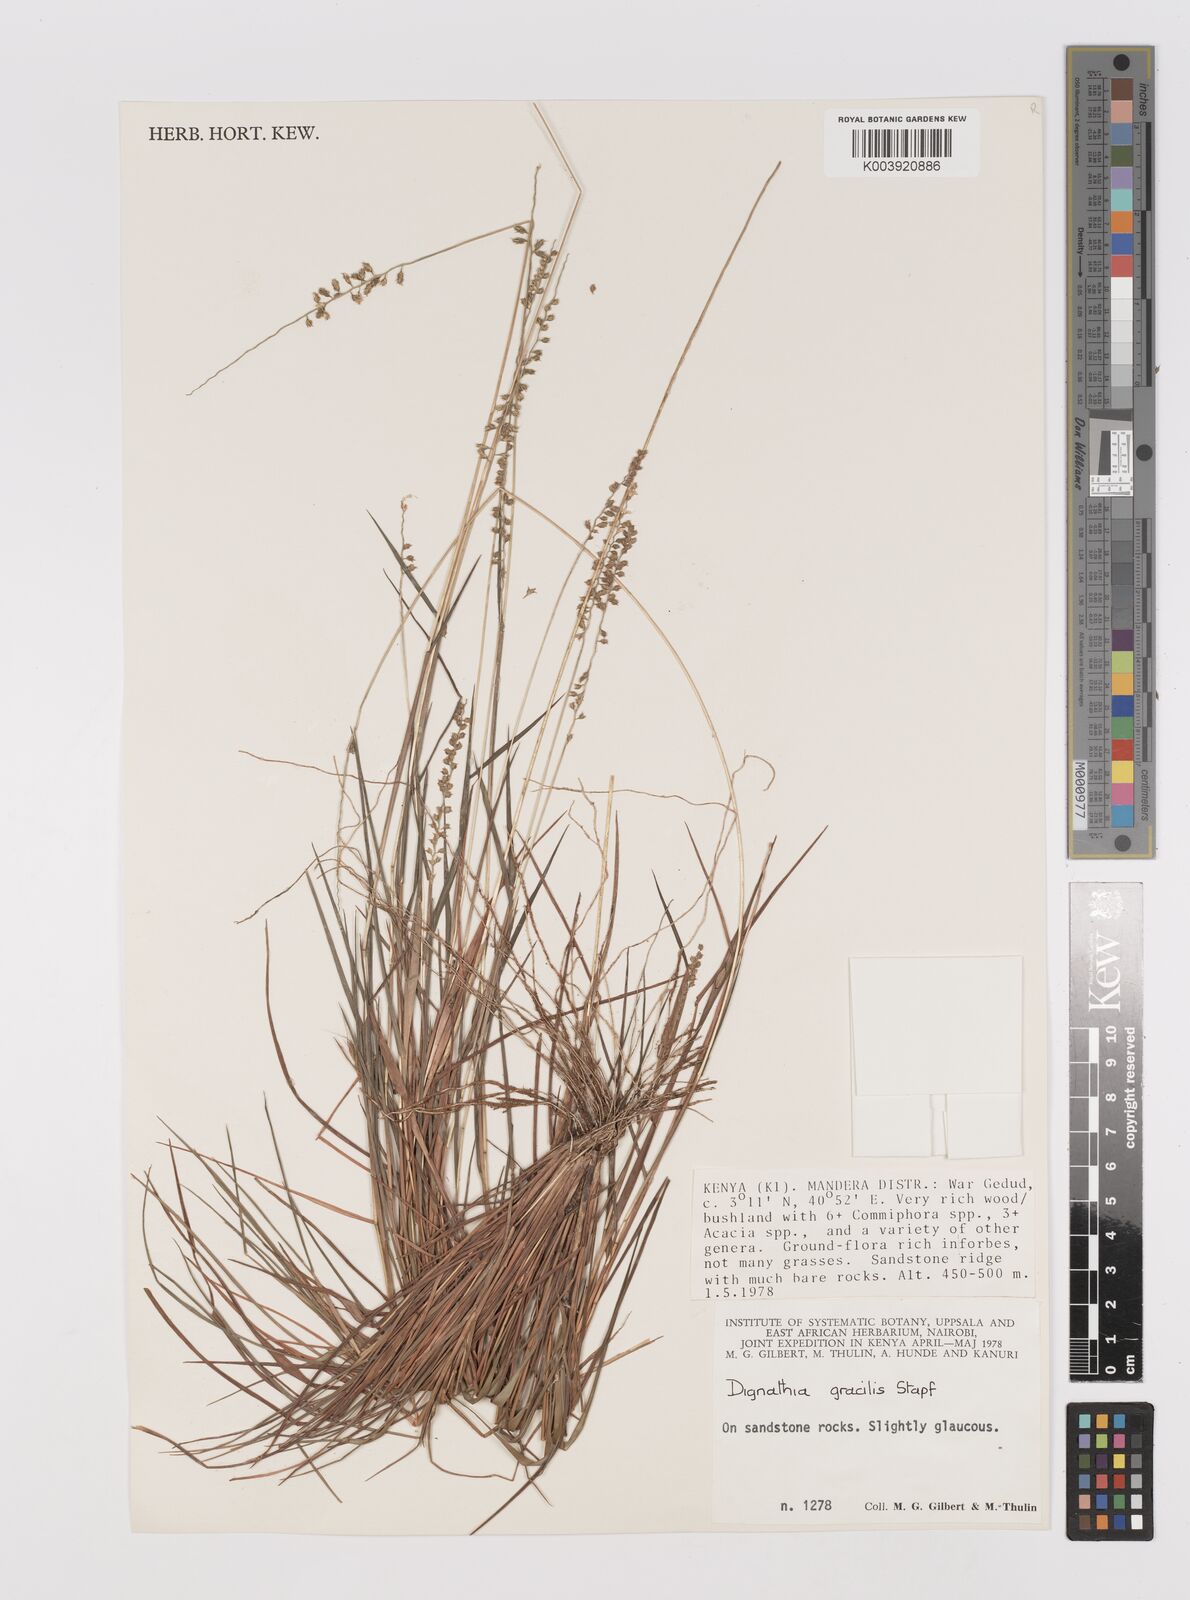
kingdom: Plantae
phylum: Tracheophyta
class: Liliopsida
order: Poales
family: Poaceae
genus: Dignathia
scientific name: Dignathia gracilis
